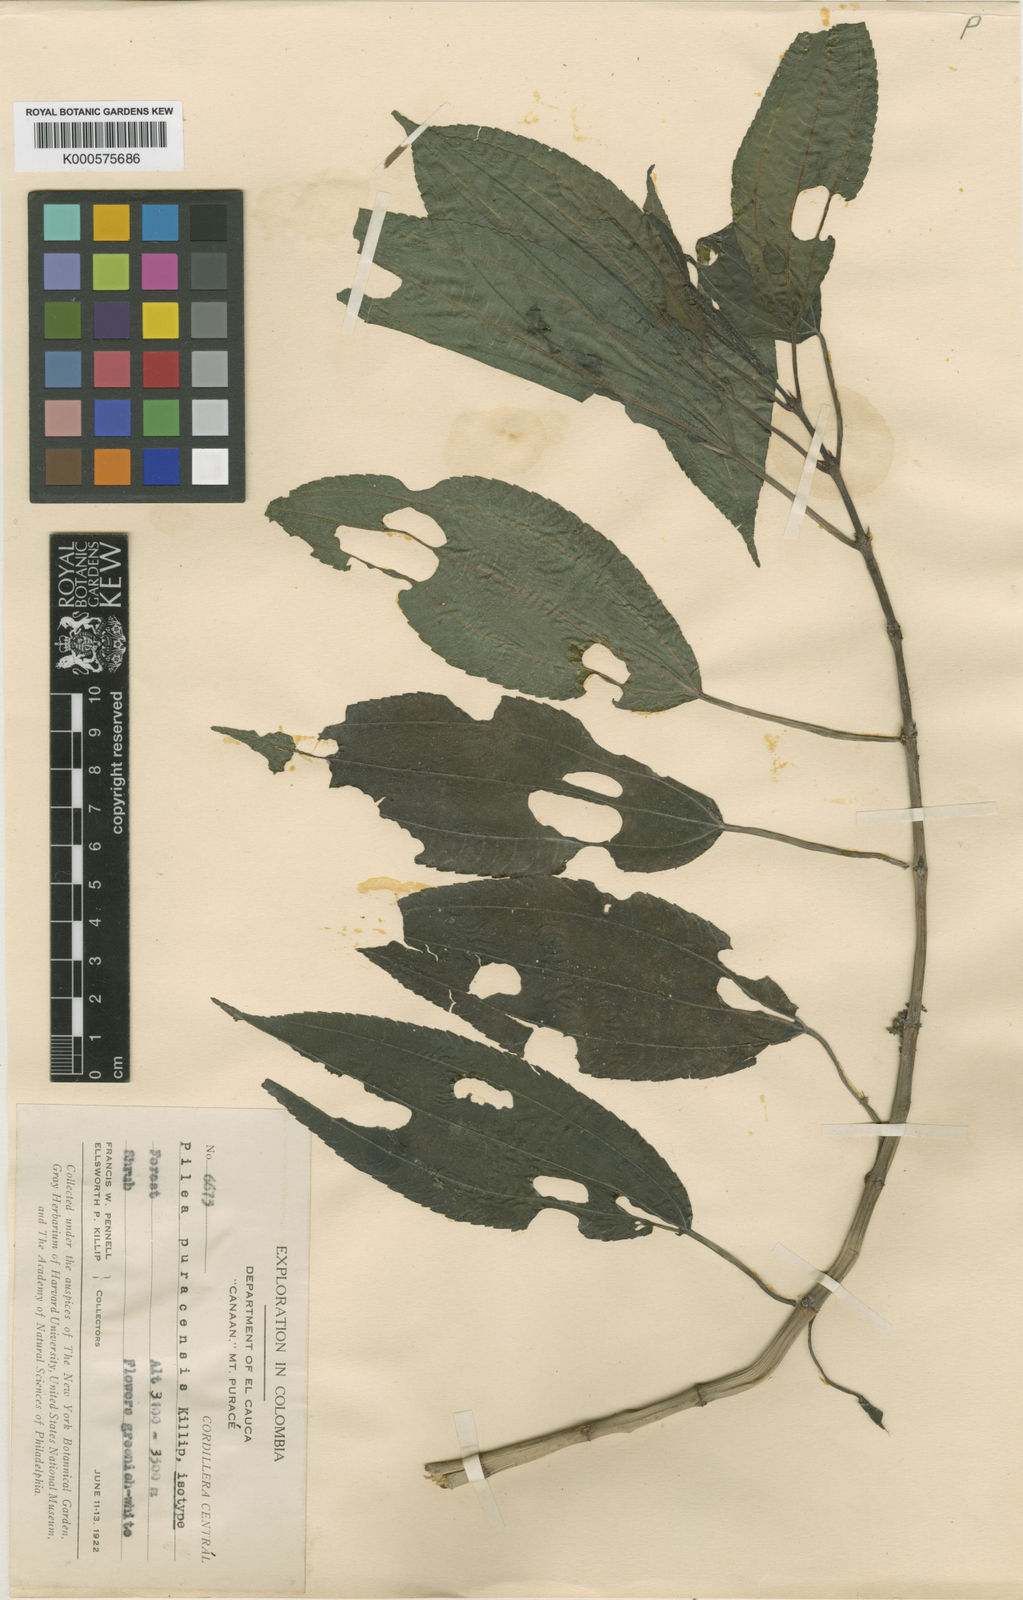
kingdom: Plantae
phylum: Tracheophyta
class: Magnoliopsida
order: Rosales
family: Urticaceae
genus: Pilea
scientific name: Pilea puracensis
